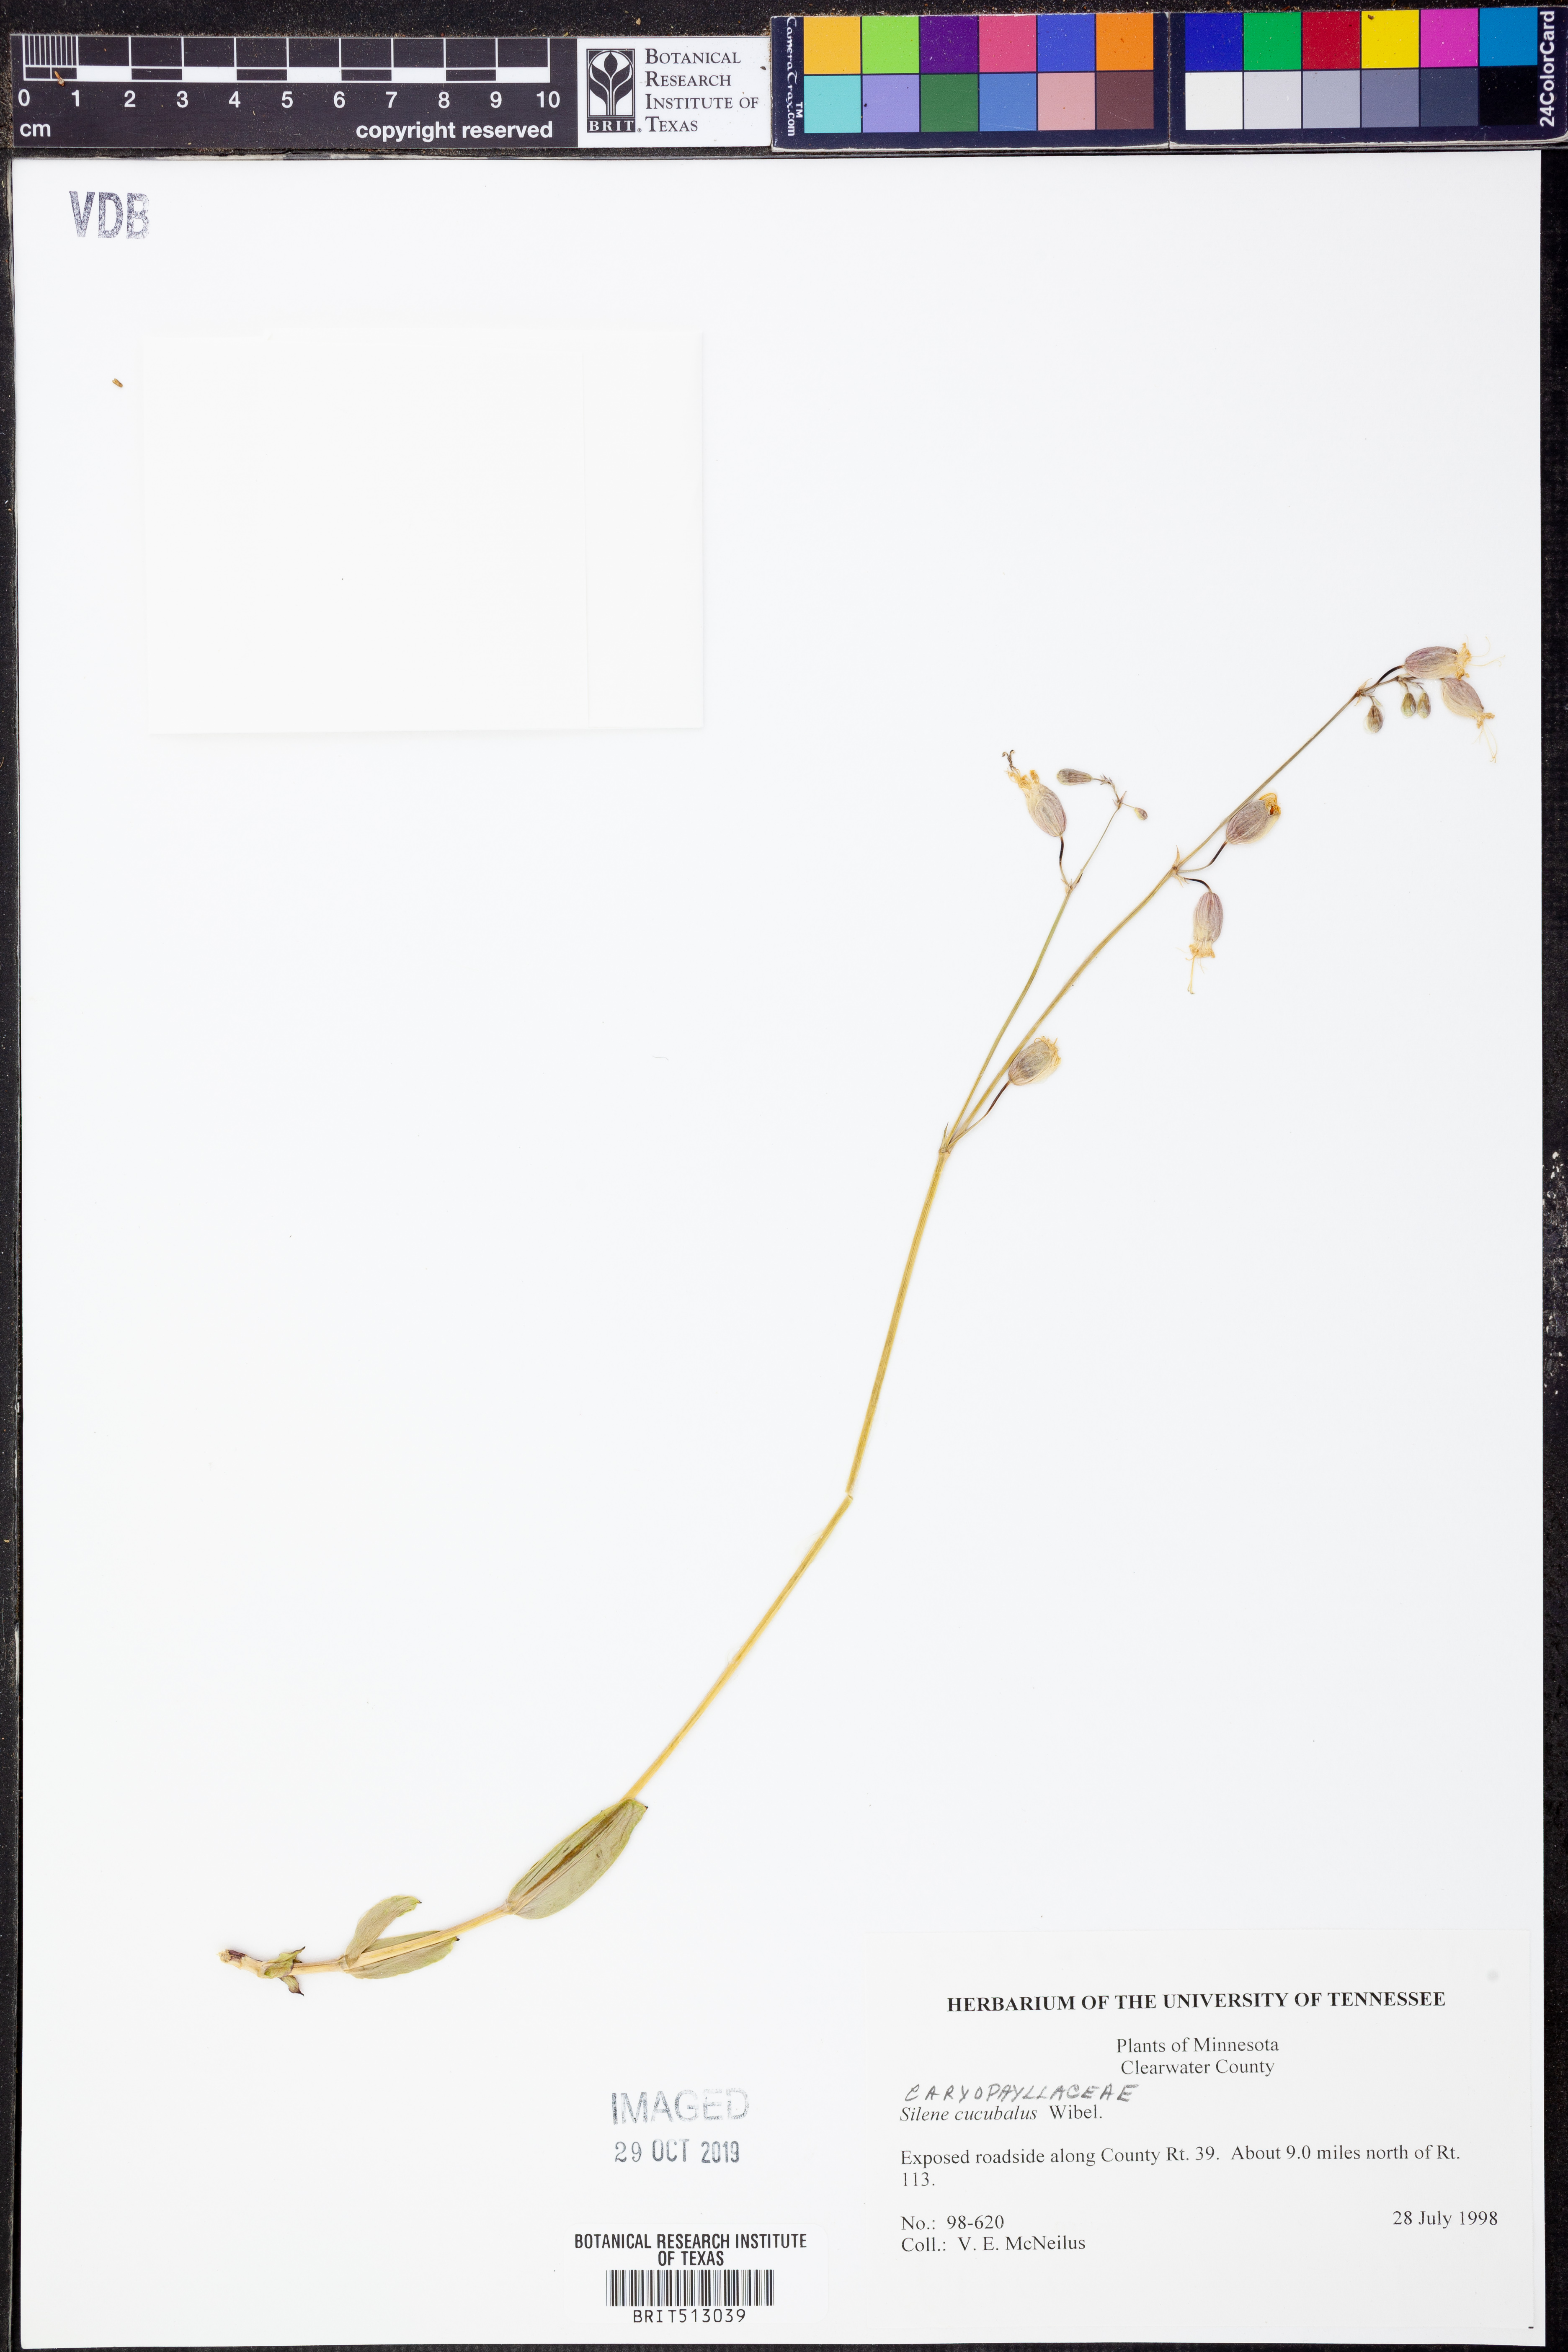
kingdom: Plantae
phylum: Tracheophyta
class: Magnoliopsida
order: Caryophyllales
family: Caryophyllaceae
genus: Silene
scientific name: Silene vulgaris
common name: Bladder campion
